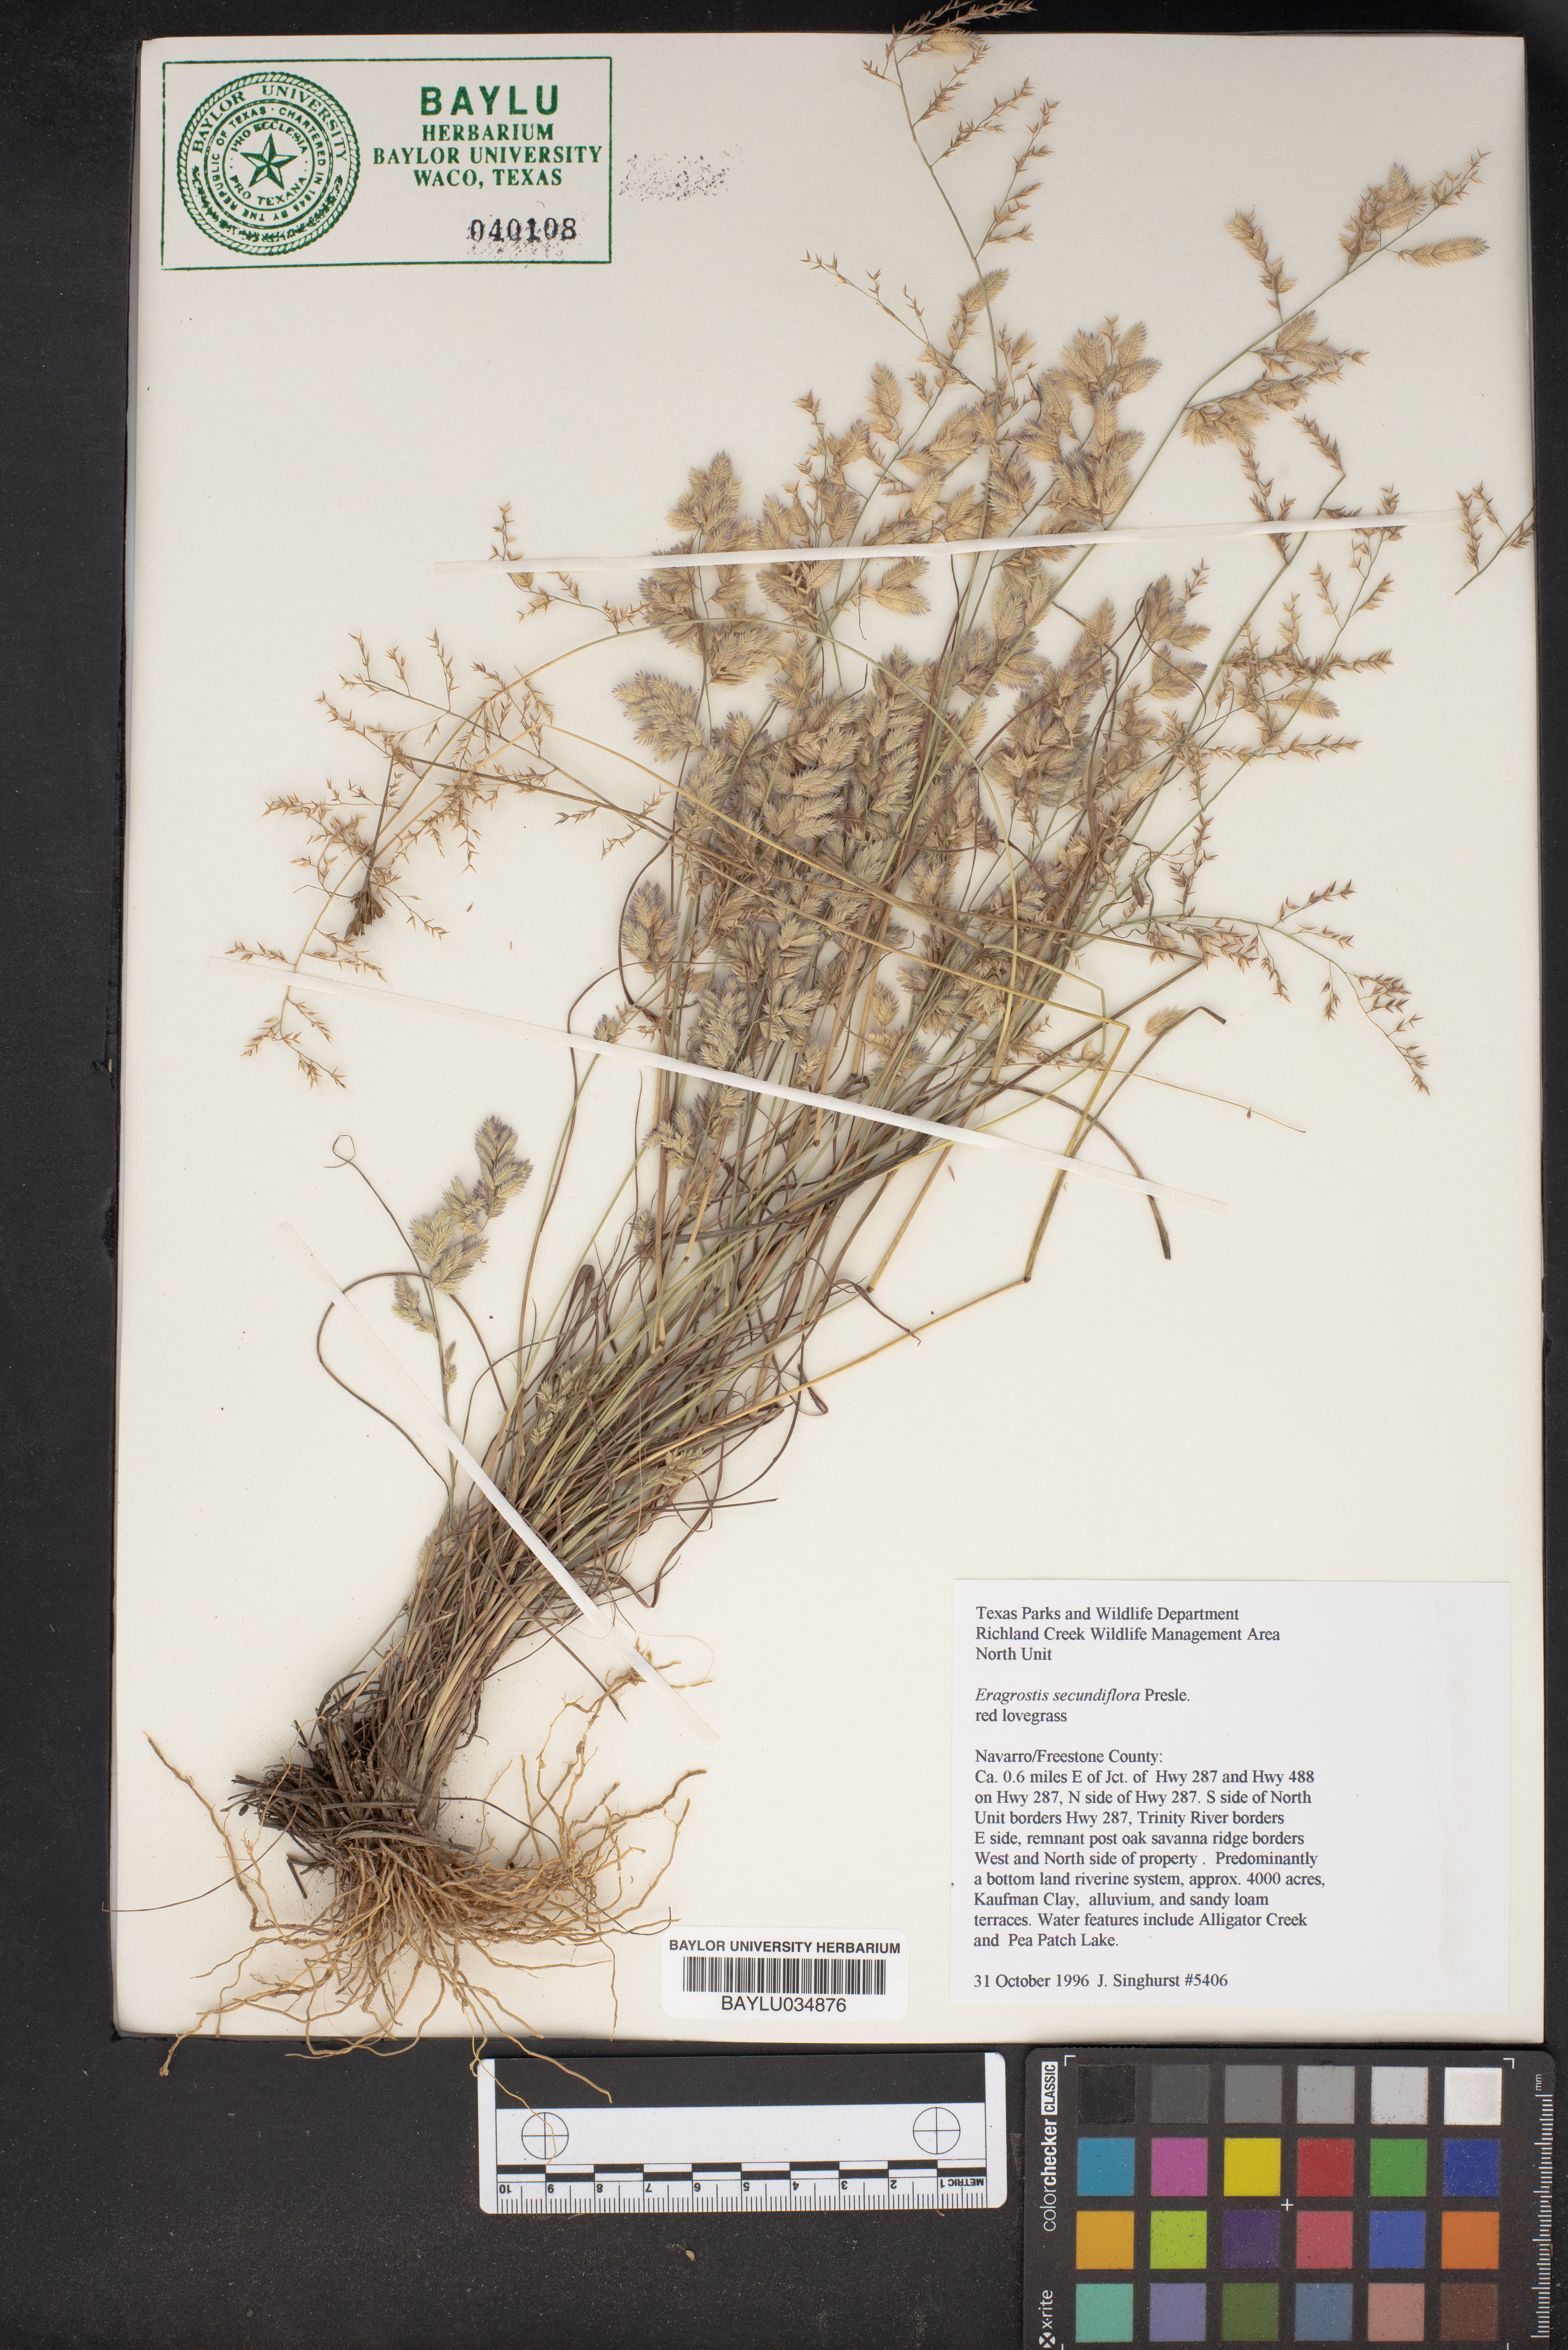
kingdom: Plantae
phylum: Tracheophyta
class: Liliopsida
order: Poales
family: Poaceae
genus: Eragrostis
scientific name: Eragrostis secundiflora
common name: Red love grass
